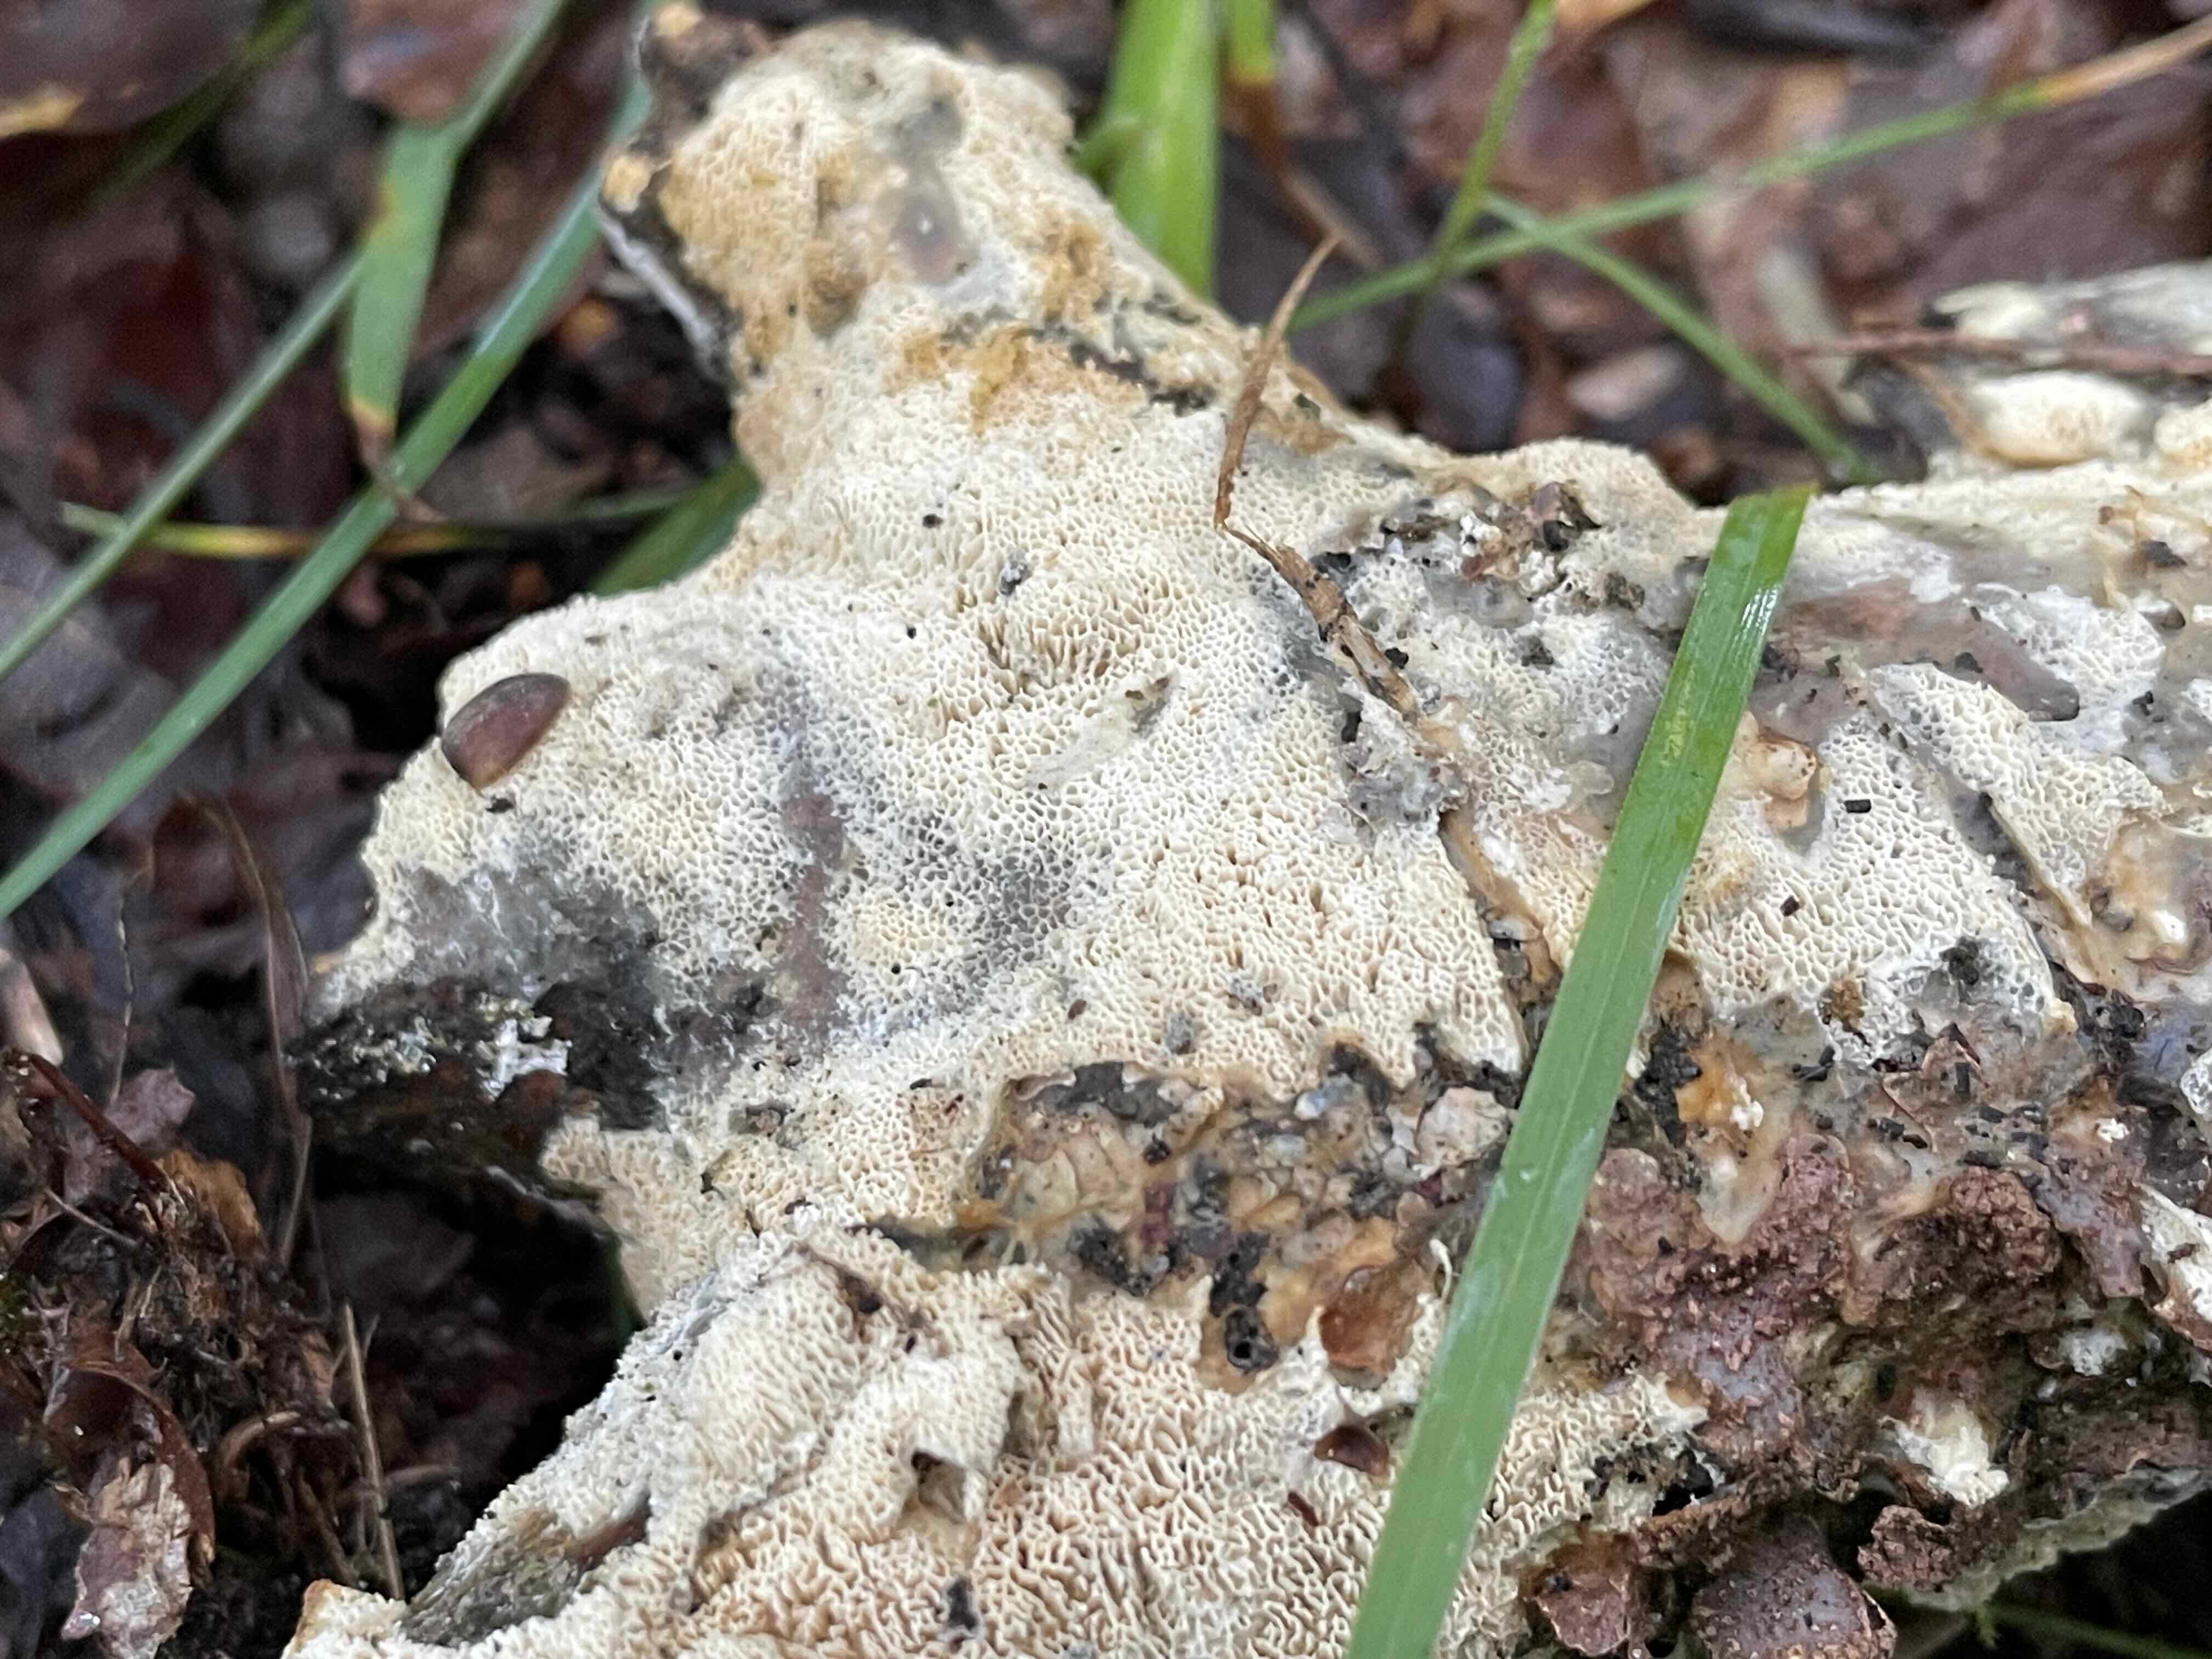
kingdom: Fungi
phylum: Basidiomycota
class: Agaricomycetes
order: Hymenochaetales
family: Schizoporaceae
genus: Xylodon
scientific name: Xylodon subtropicus
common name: labyrint-tandsvamp
